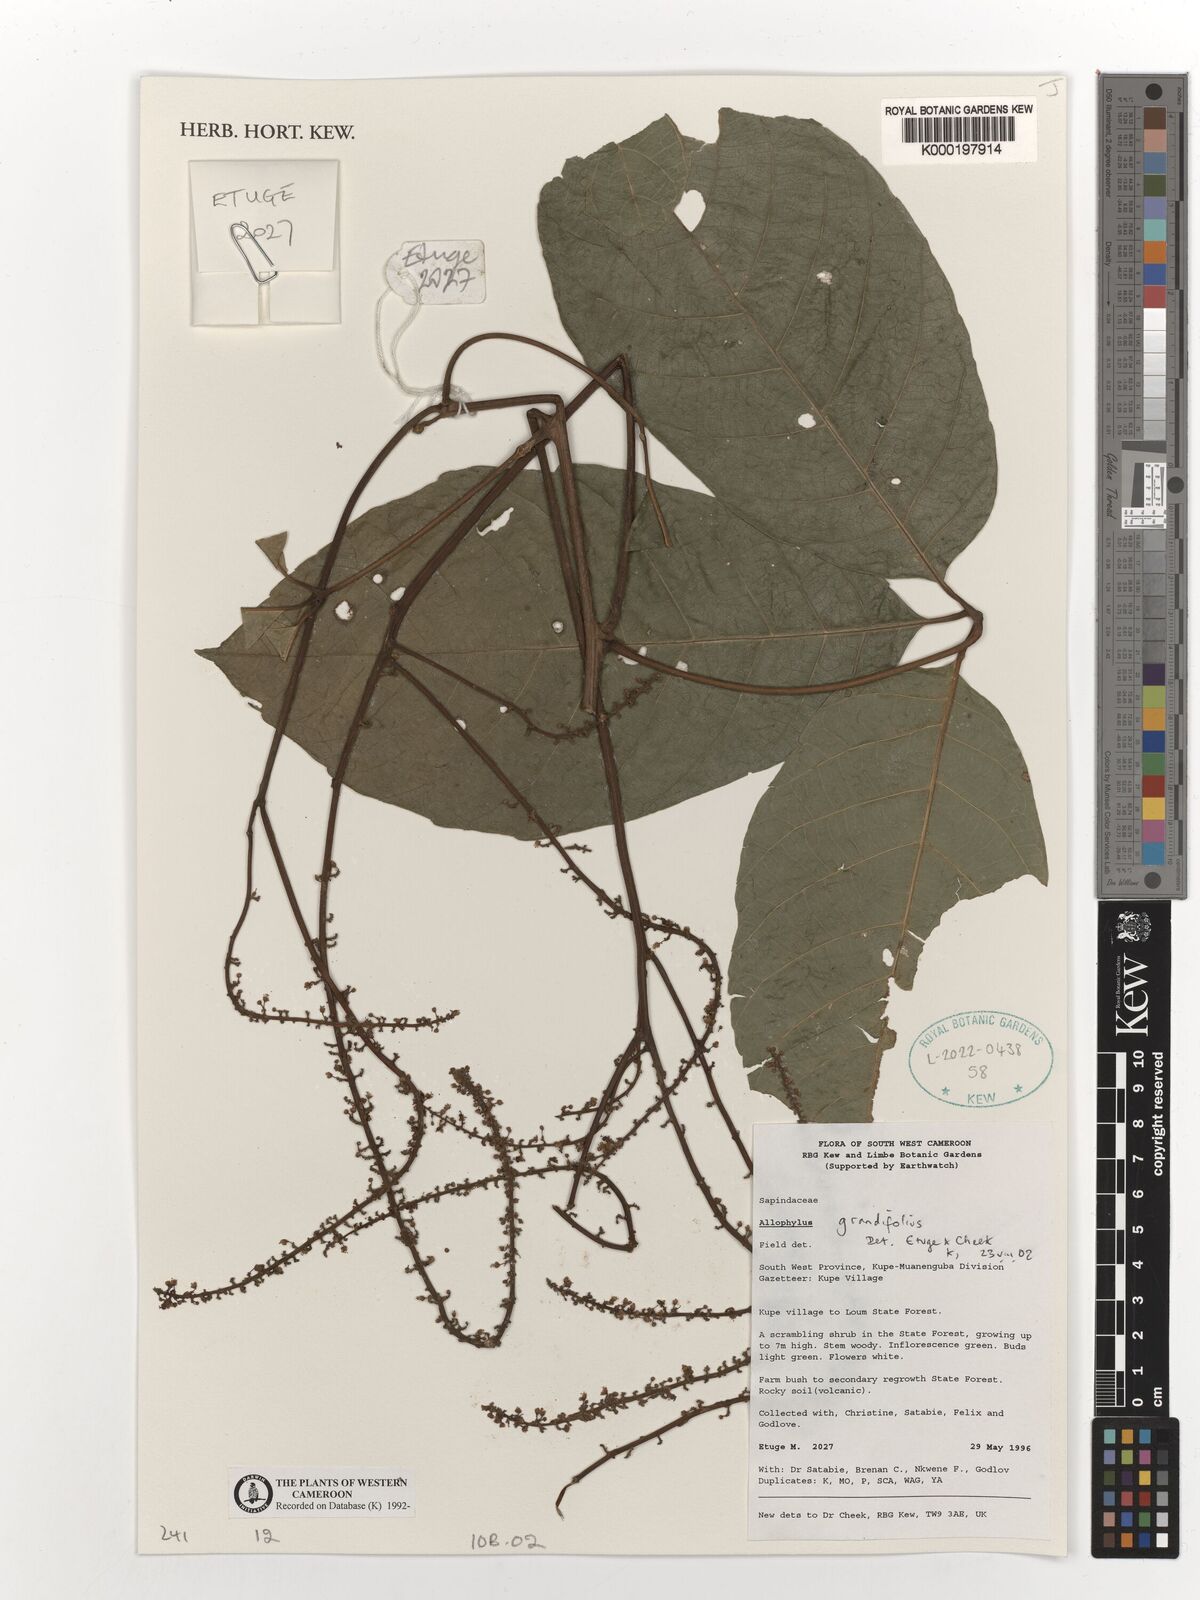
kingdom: Plantae
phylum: Tracheophyta
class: Magnoliopsida
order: Sapindales
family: Sapindaceae
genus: Allophylus
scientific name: Allophylus grandifolius
